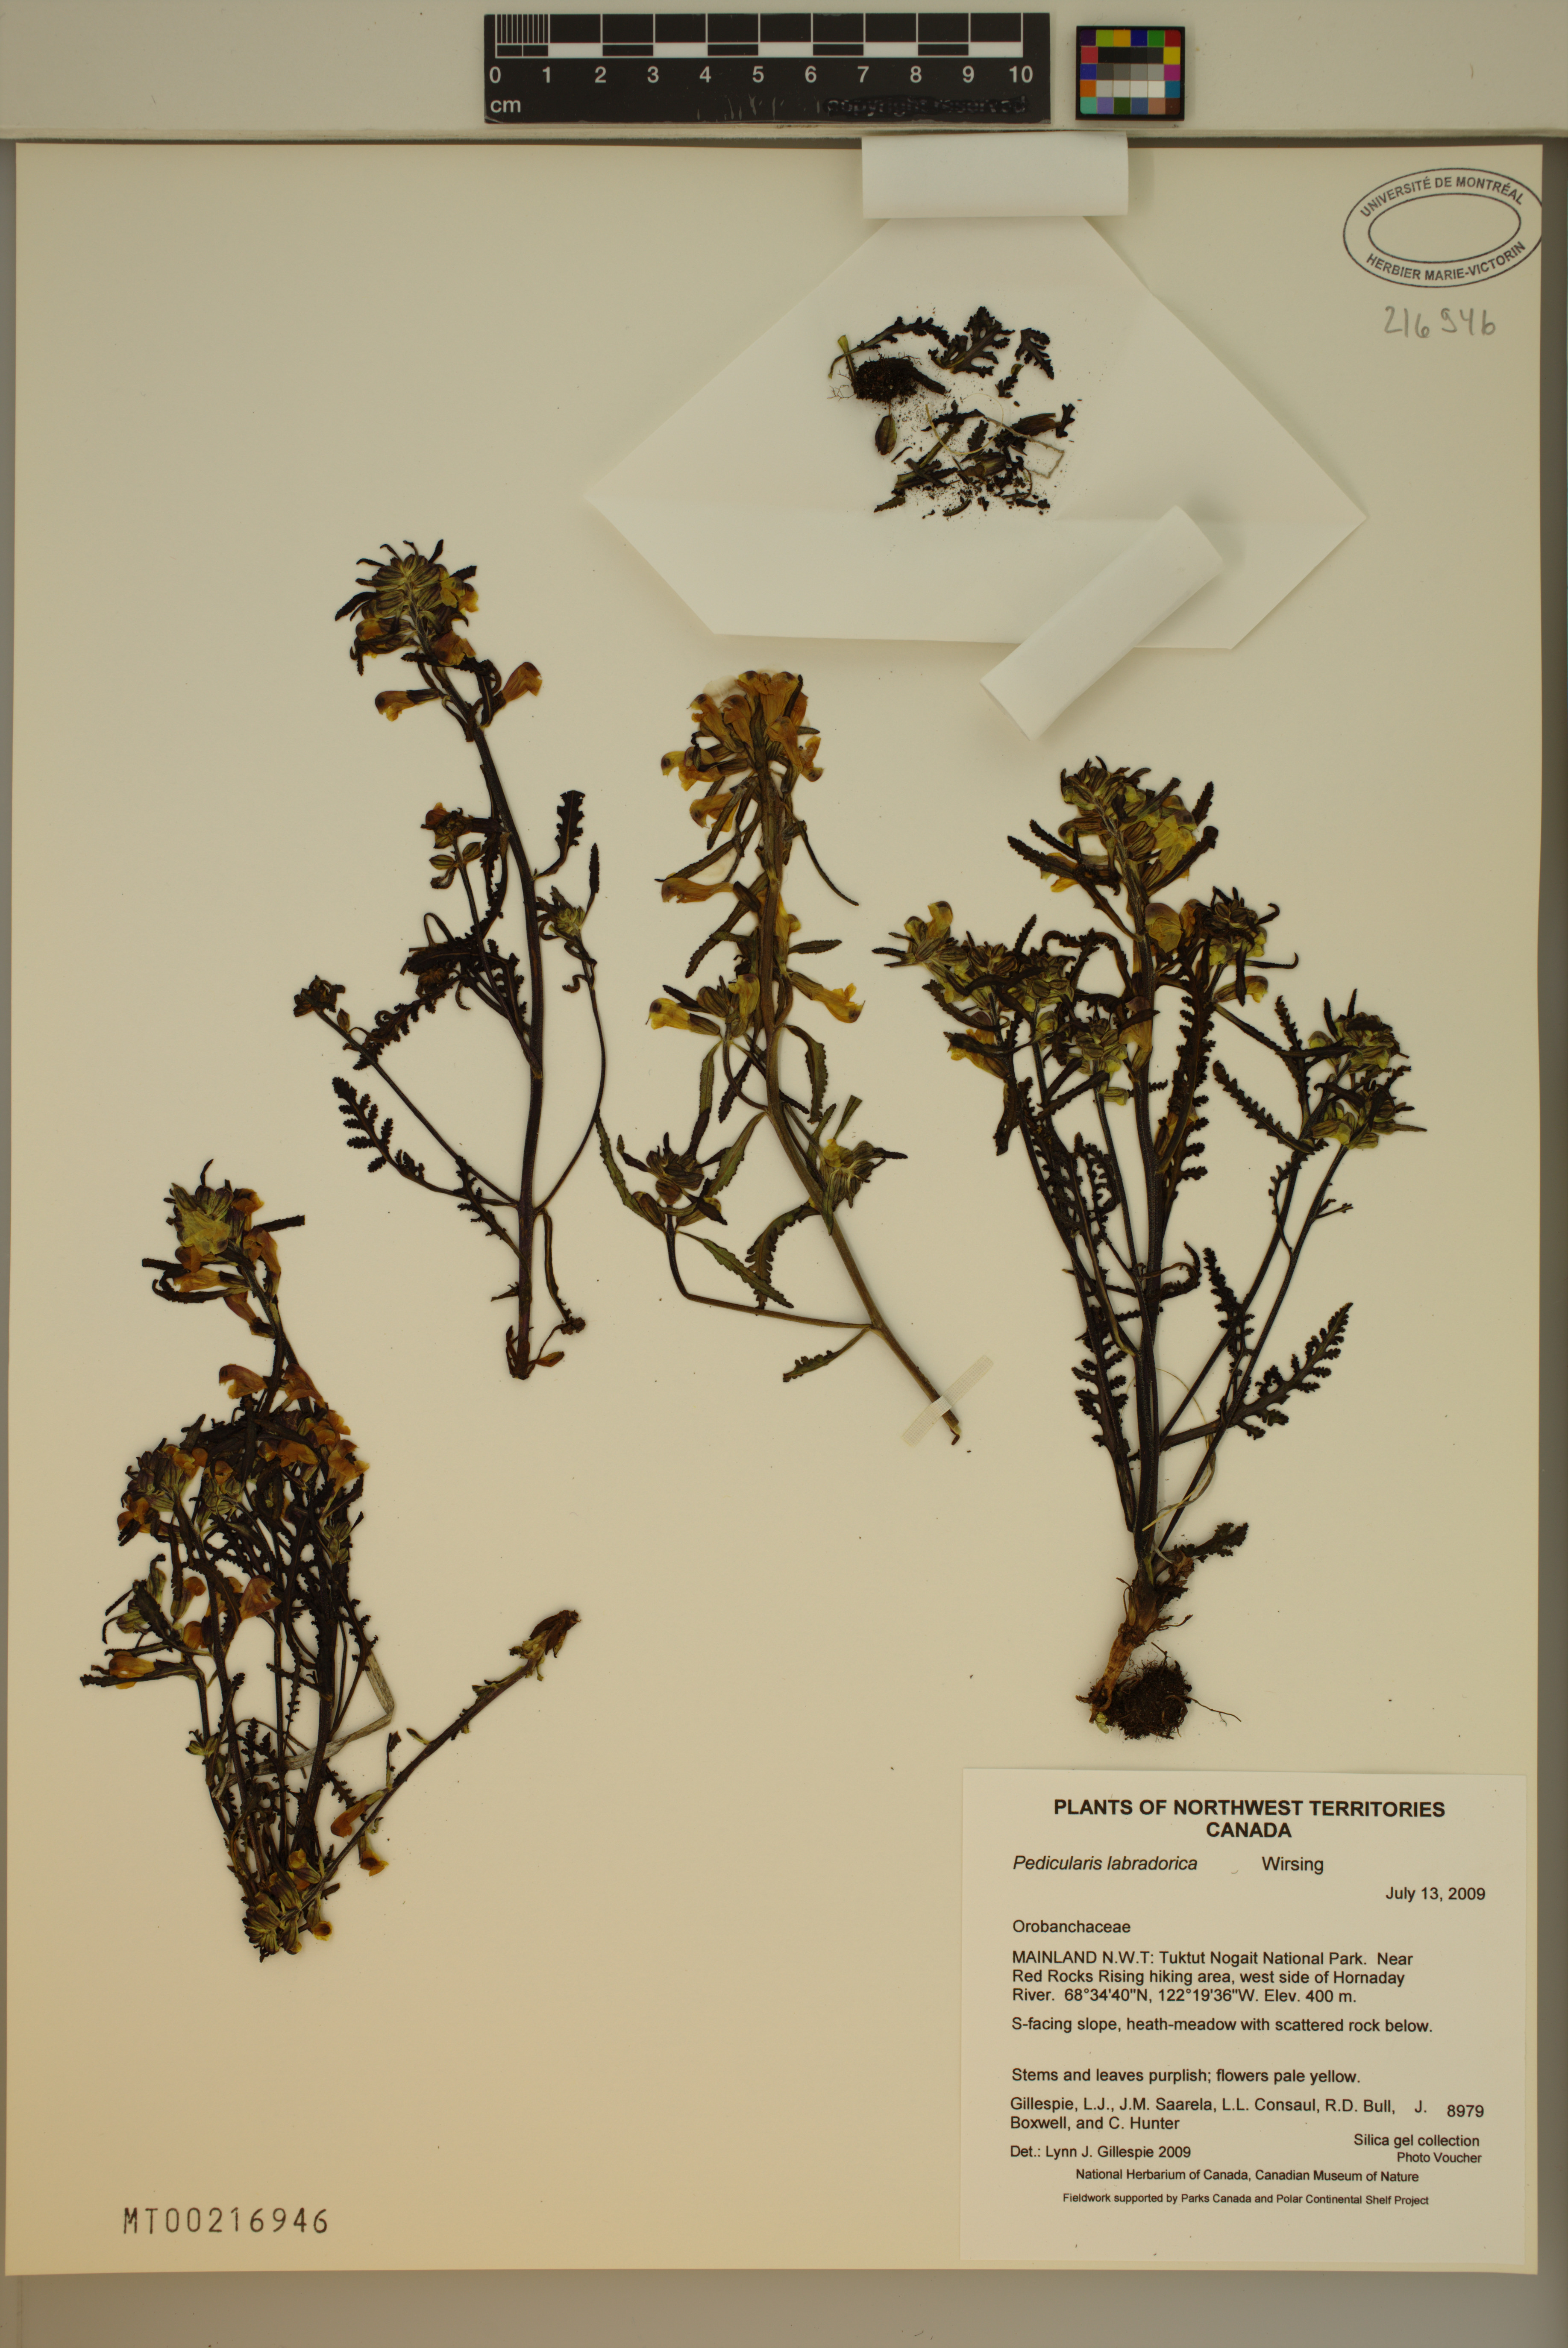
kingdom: Plantae
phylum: Tracheophyta
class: Magnoliopsida
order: Lamiales
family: Orobanchaceae
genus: Pedicularis
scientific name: Pedicularis labradorica
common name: Labrador lousewort
